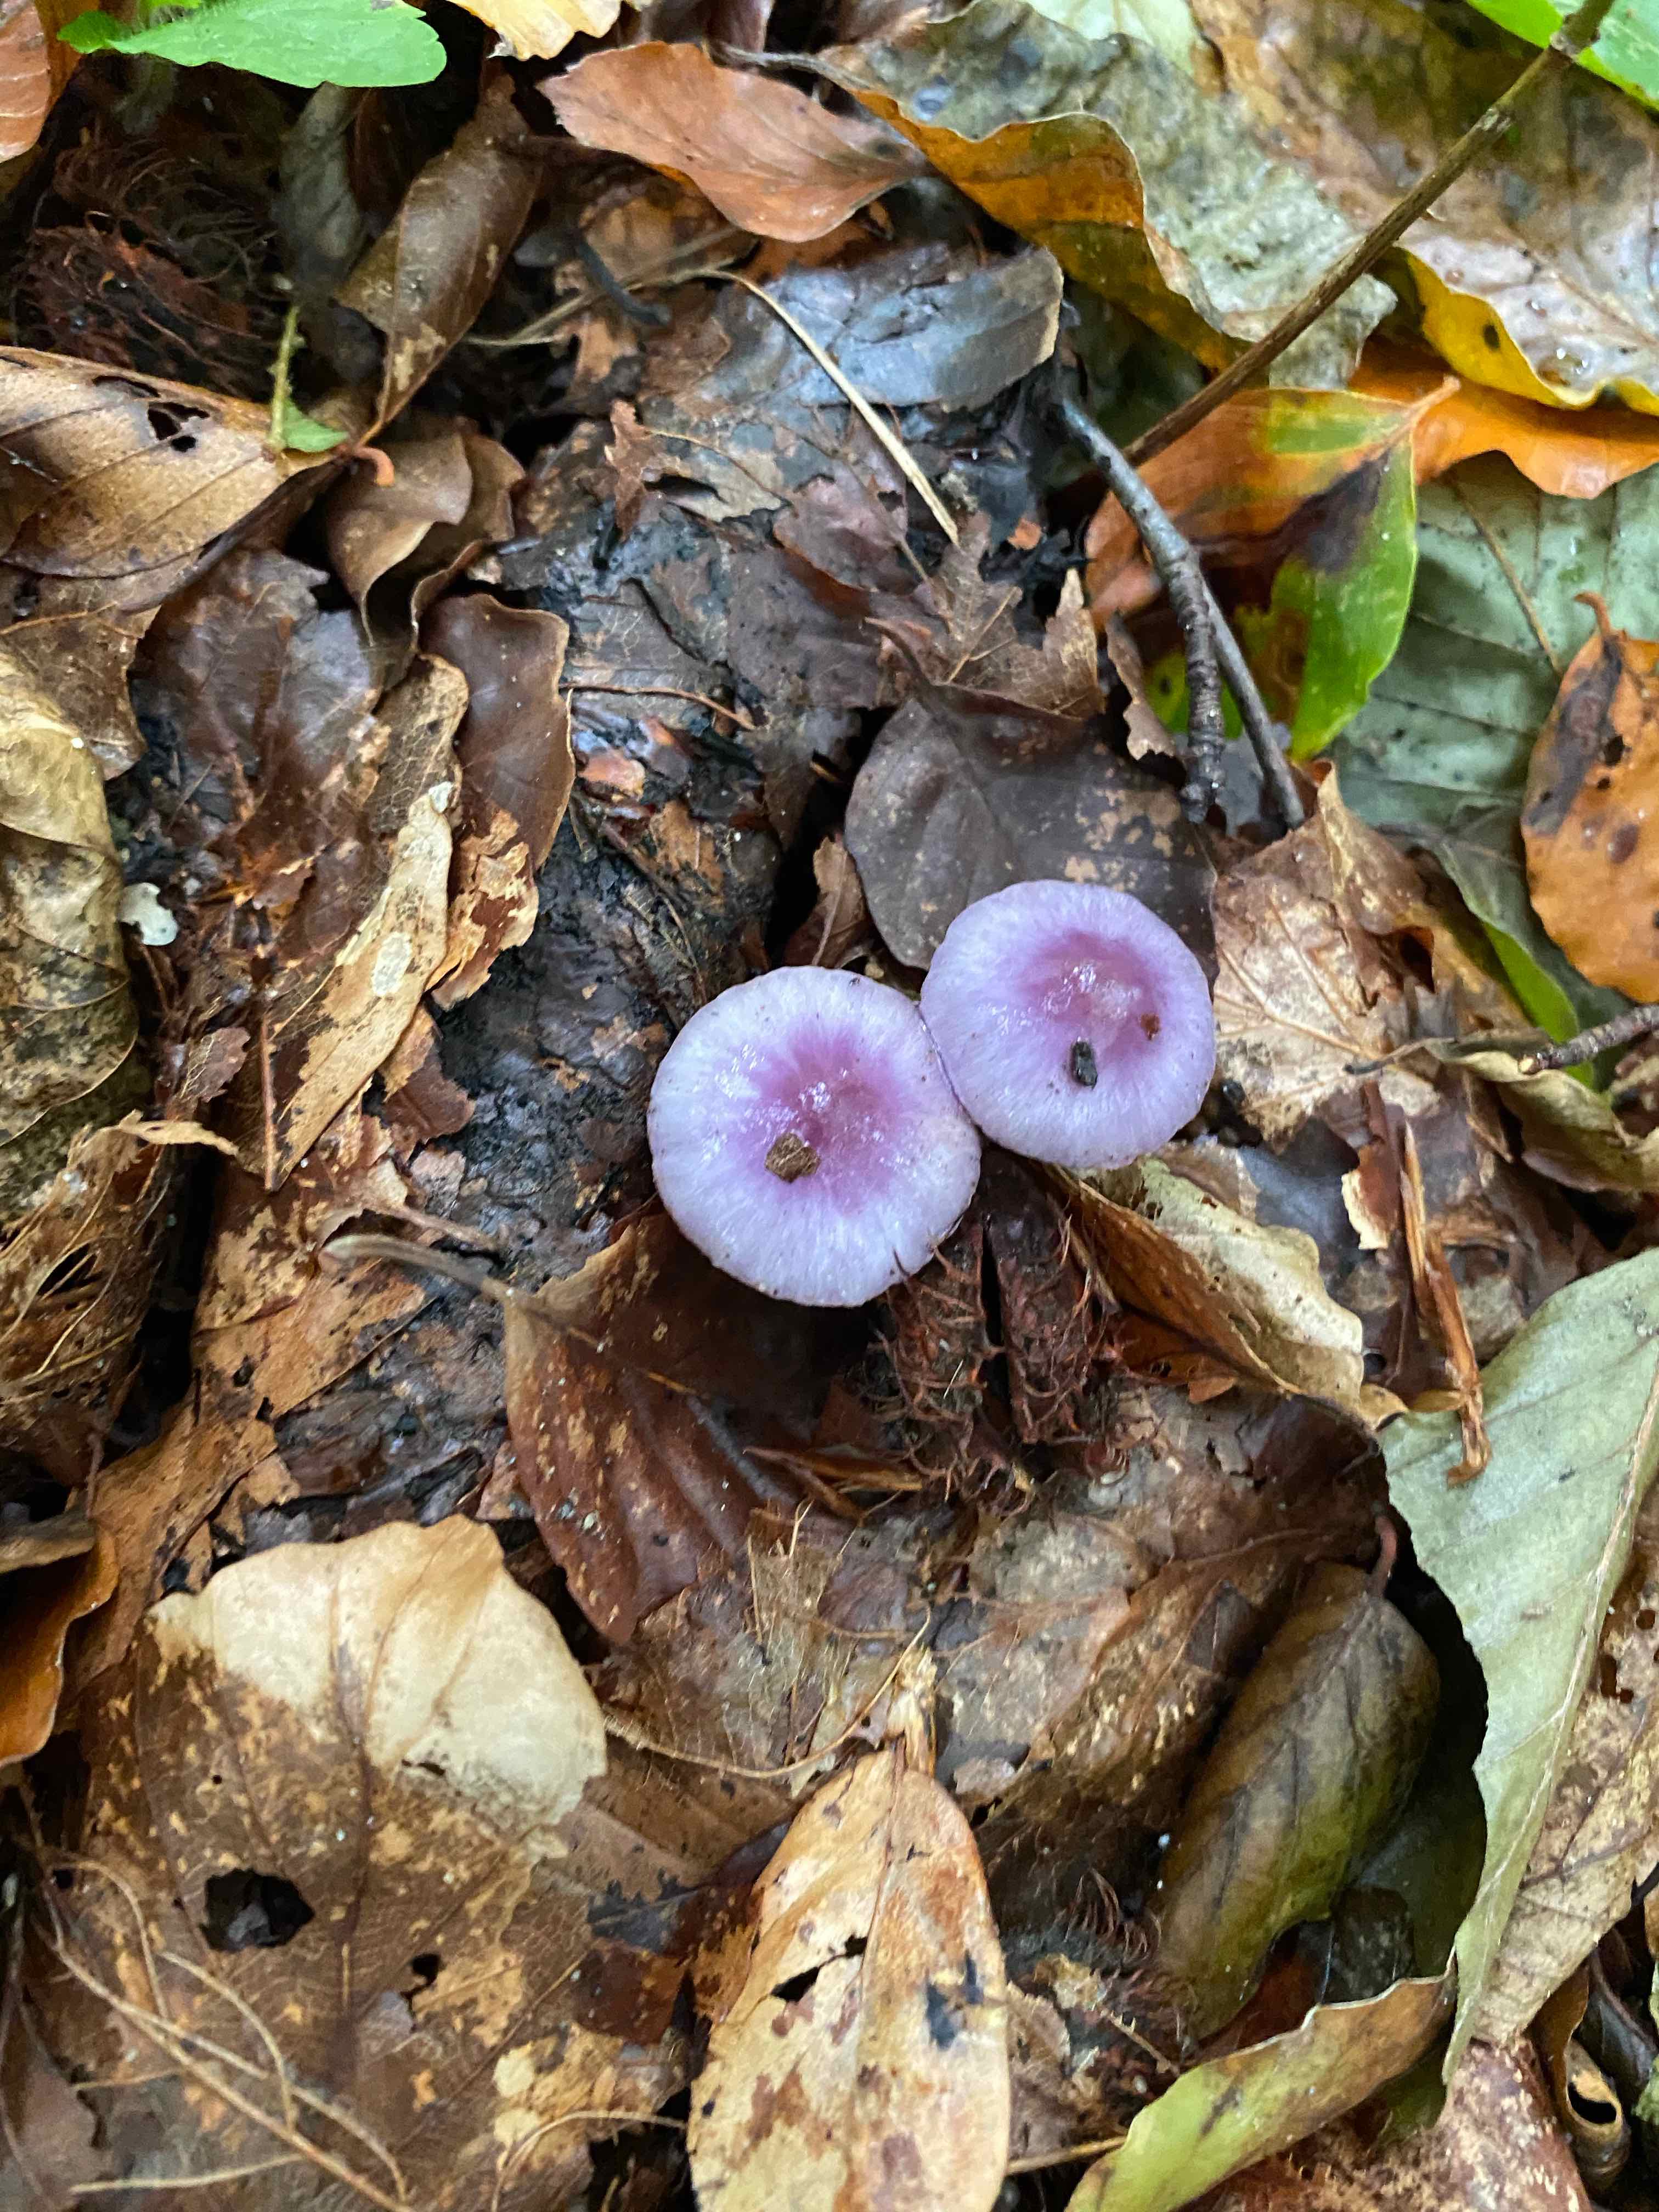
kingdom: Fungi
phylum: Basidiomycota
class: Agaricomycetes
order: Agaricales
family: Hydnangiaceae
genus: Laccaria
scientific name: Laccaria amethystina
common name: violet ametysthat
